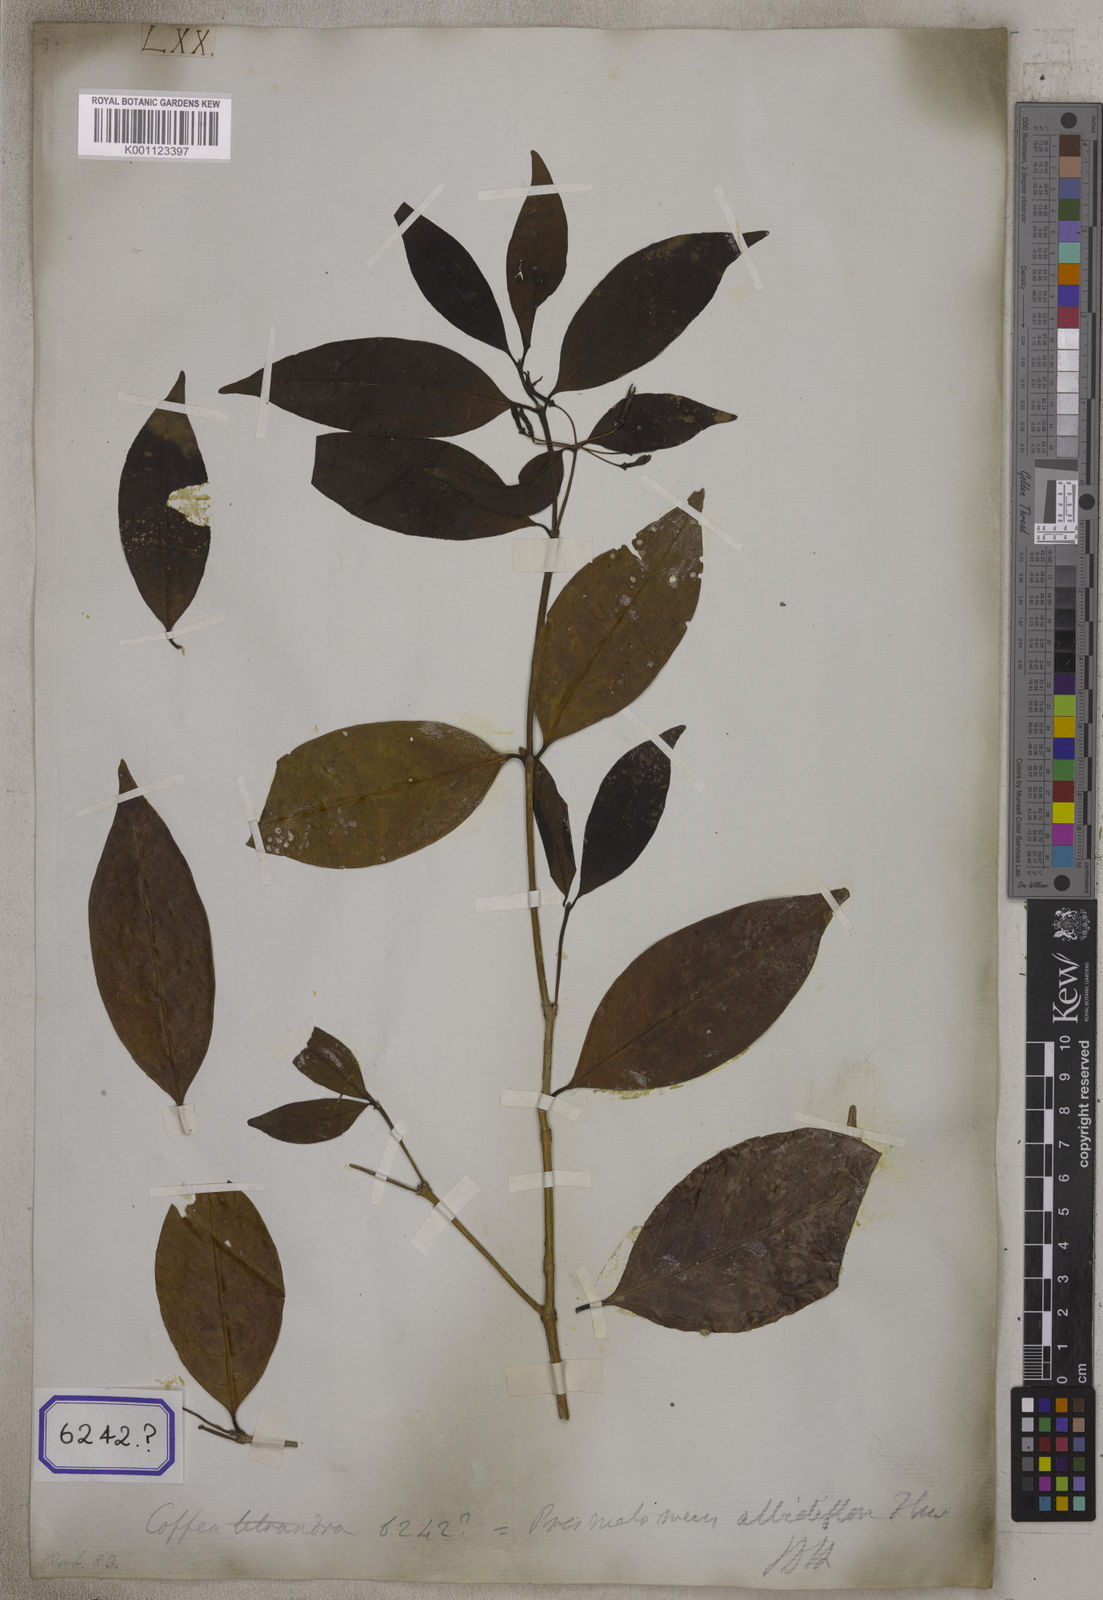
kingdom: Plantae
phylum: Tracheophyta
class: Magnoliopsida
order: Gentianales
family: Rubiaceae
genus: Prismatomeris
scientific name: Prismatomeris tetrandra
